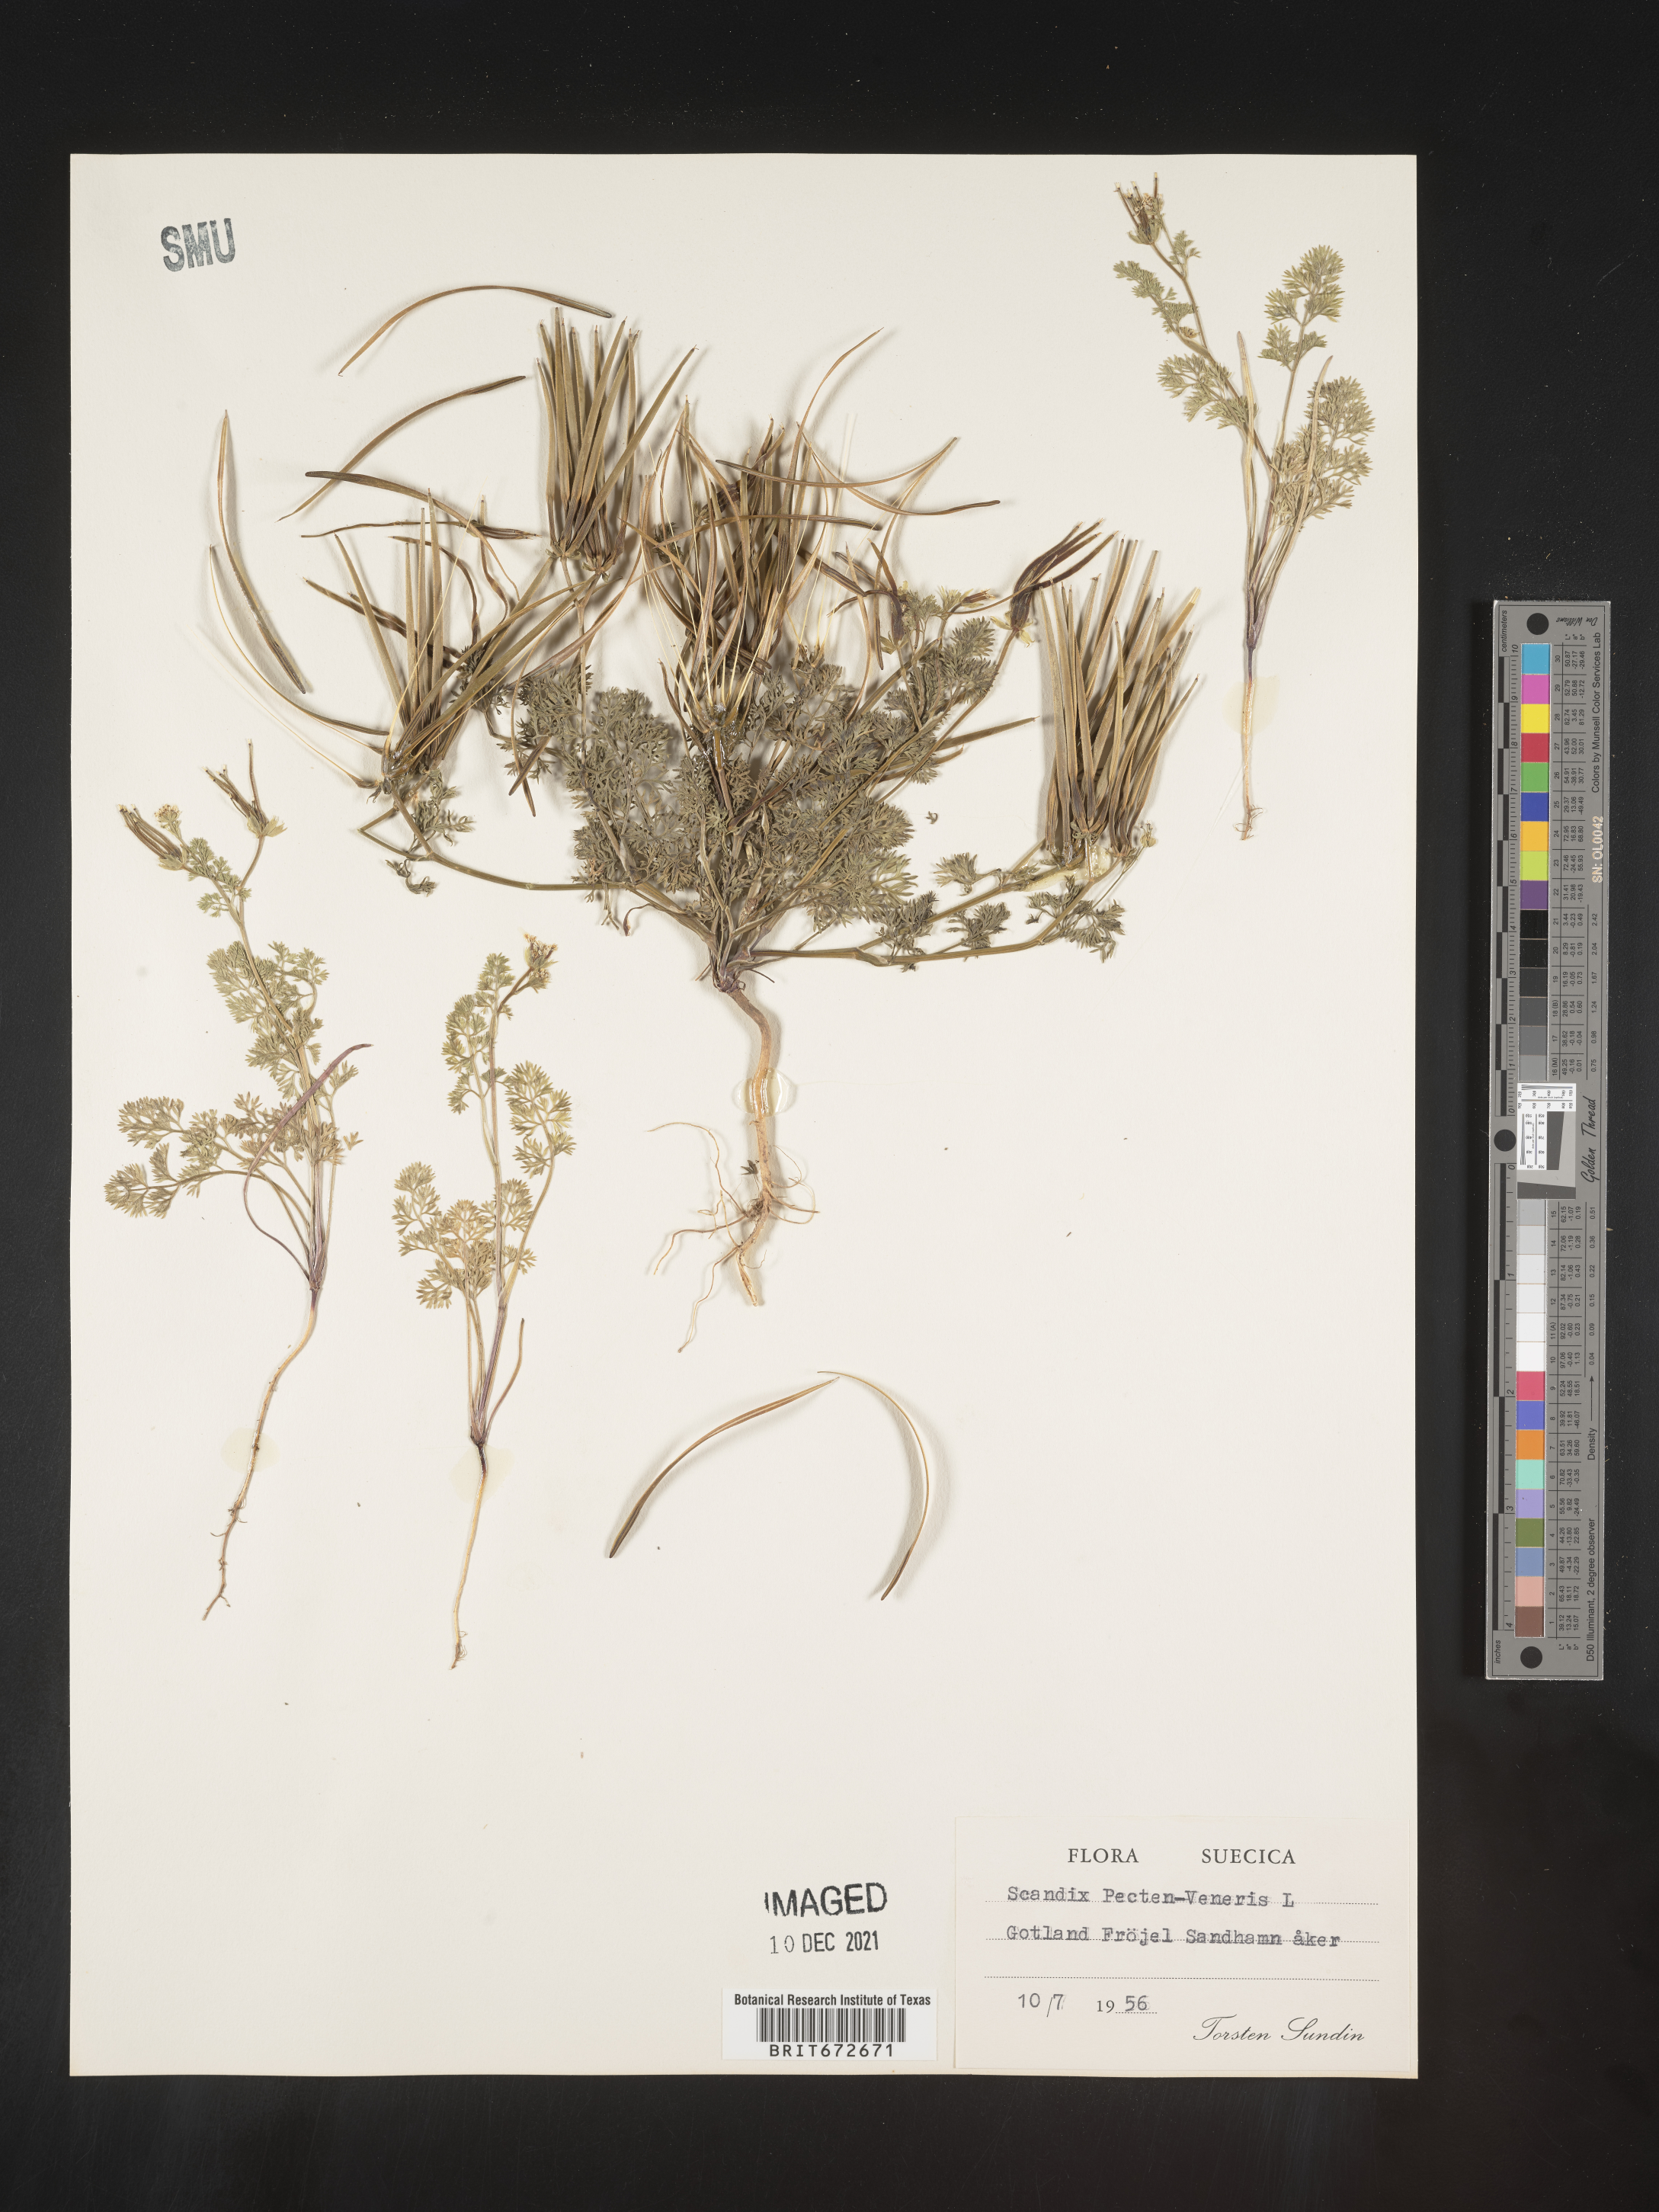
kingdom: Plantae
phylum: Tracheophyta
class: Magnoliopsida
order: Apiales
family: Apiaceae
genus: Scandix
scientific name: Scandix
